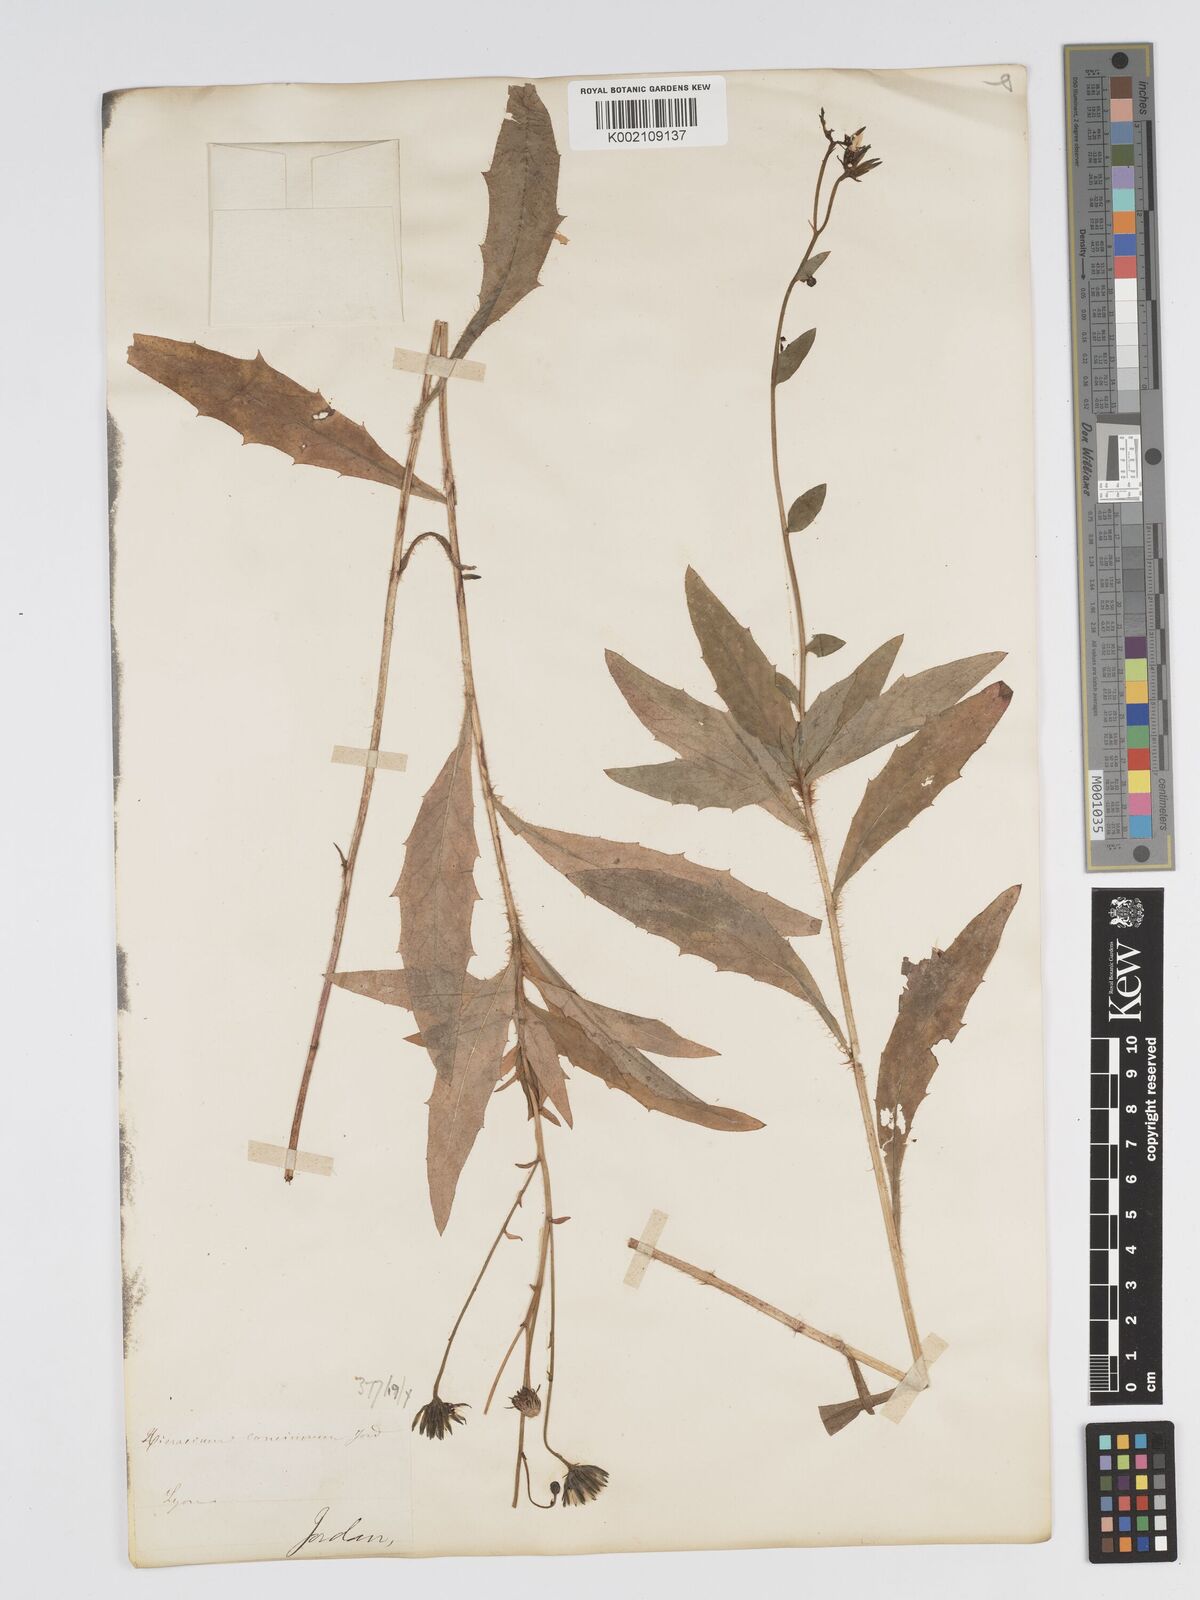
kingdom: Plantae
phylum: Tracheophyta
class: Magnoliopsida
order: Asterales
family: Asteraceae
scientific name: Asteraceae
